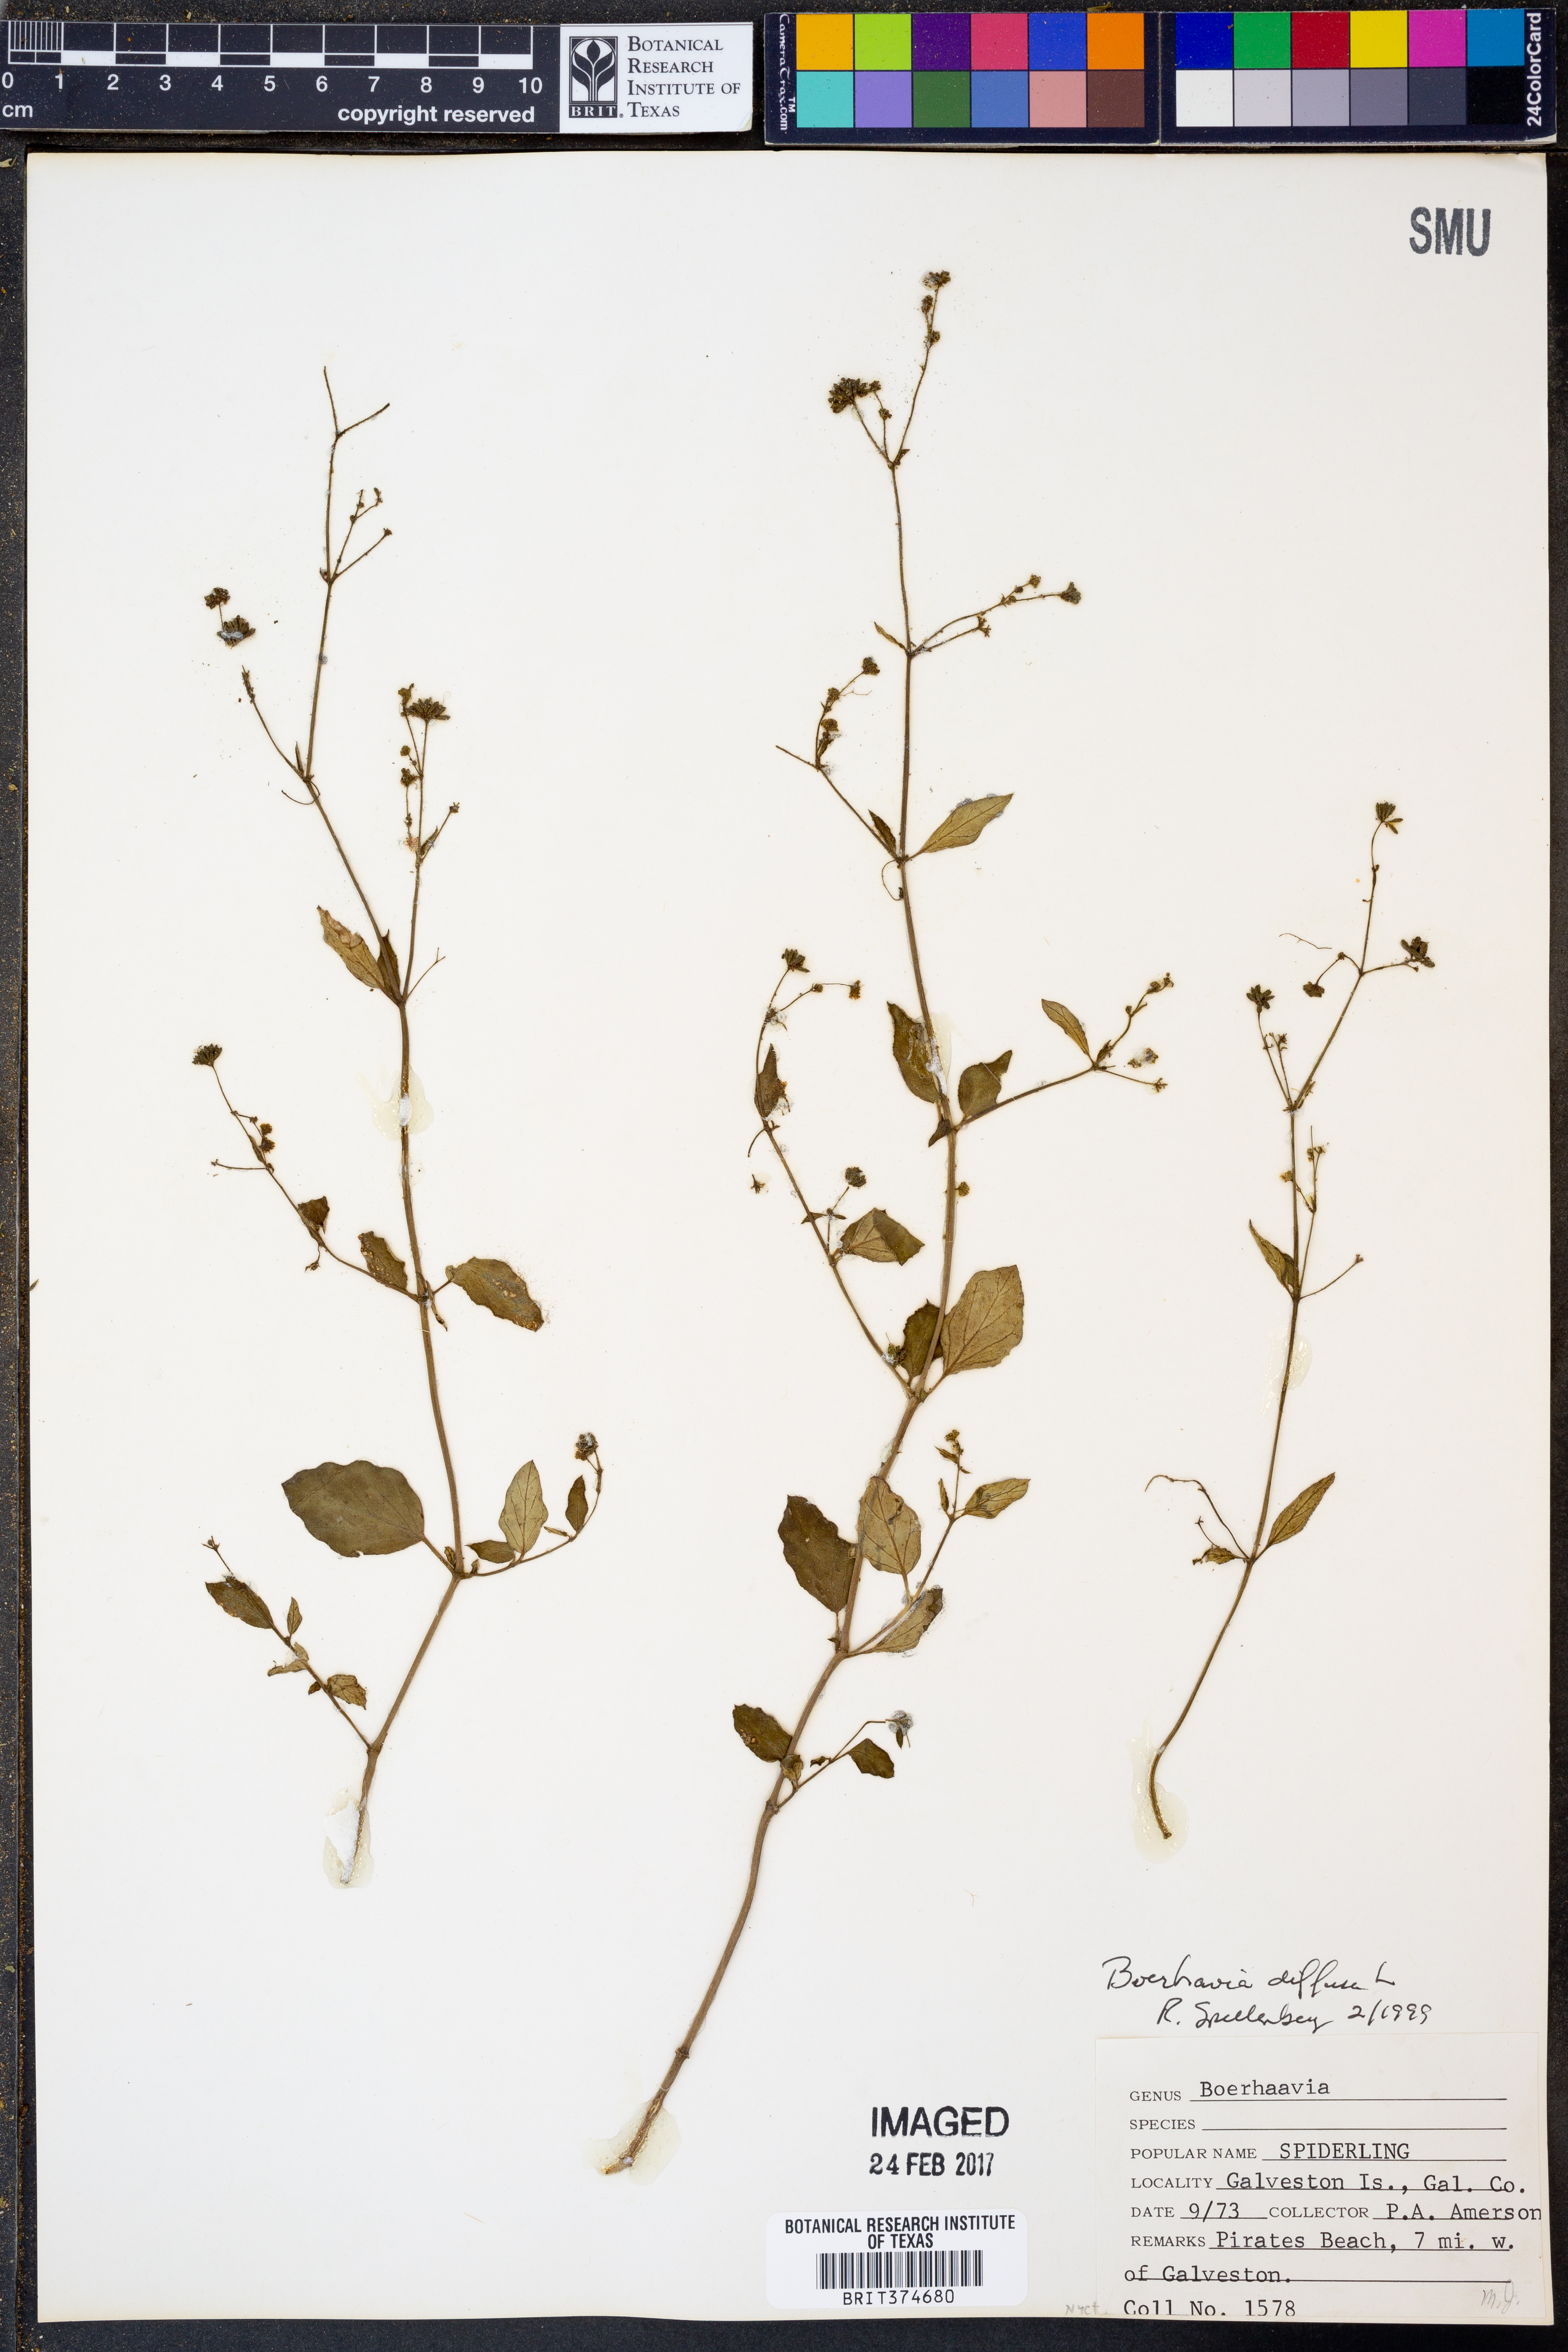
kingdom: Plantae
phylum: Tracheophyta
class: Magnoliopsida
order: Caryophyllales
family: Nyctaginaceae
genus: Boerhavia
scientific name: Boerhavia diffusa
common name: Red spiderling
